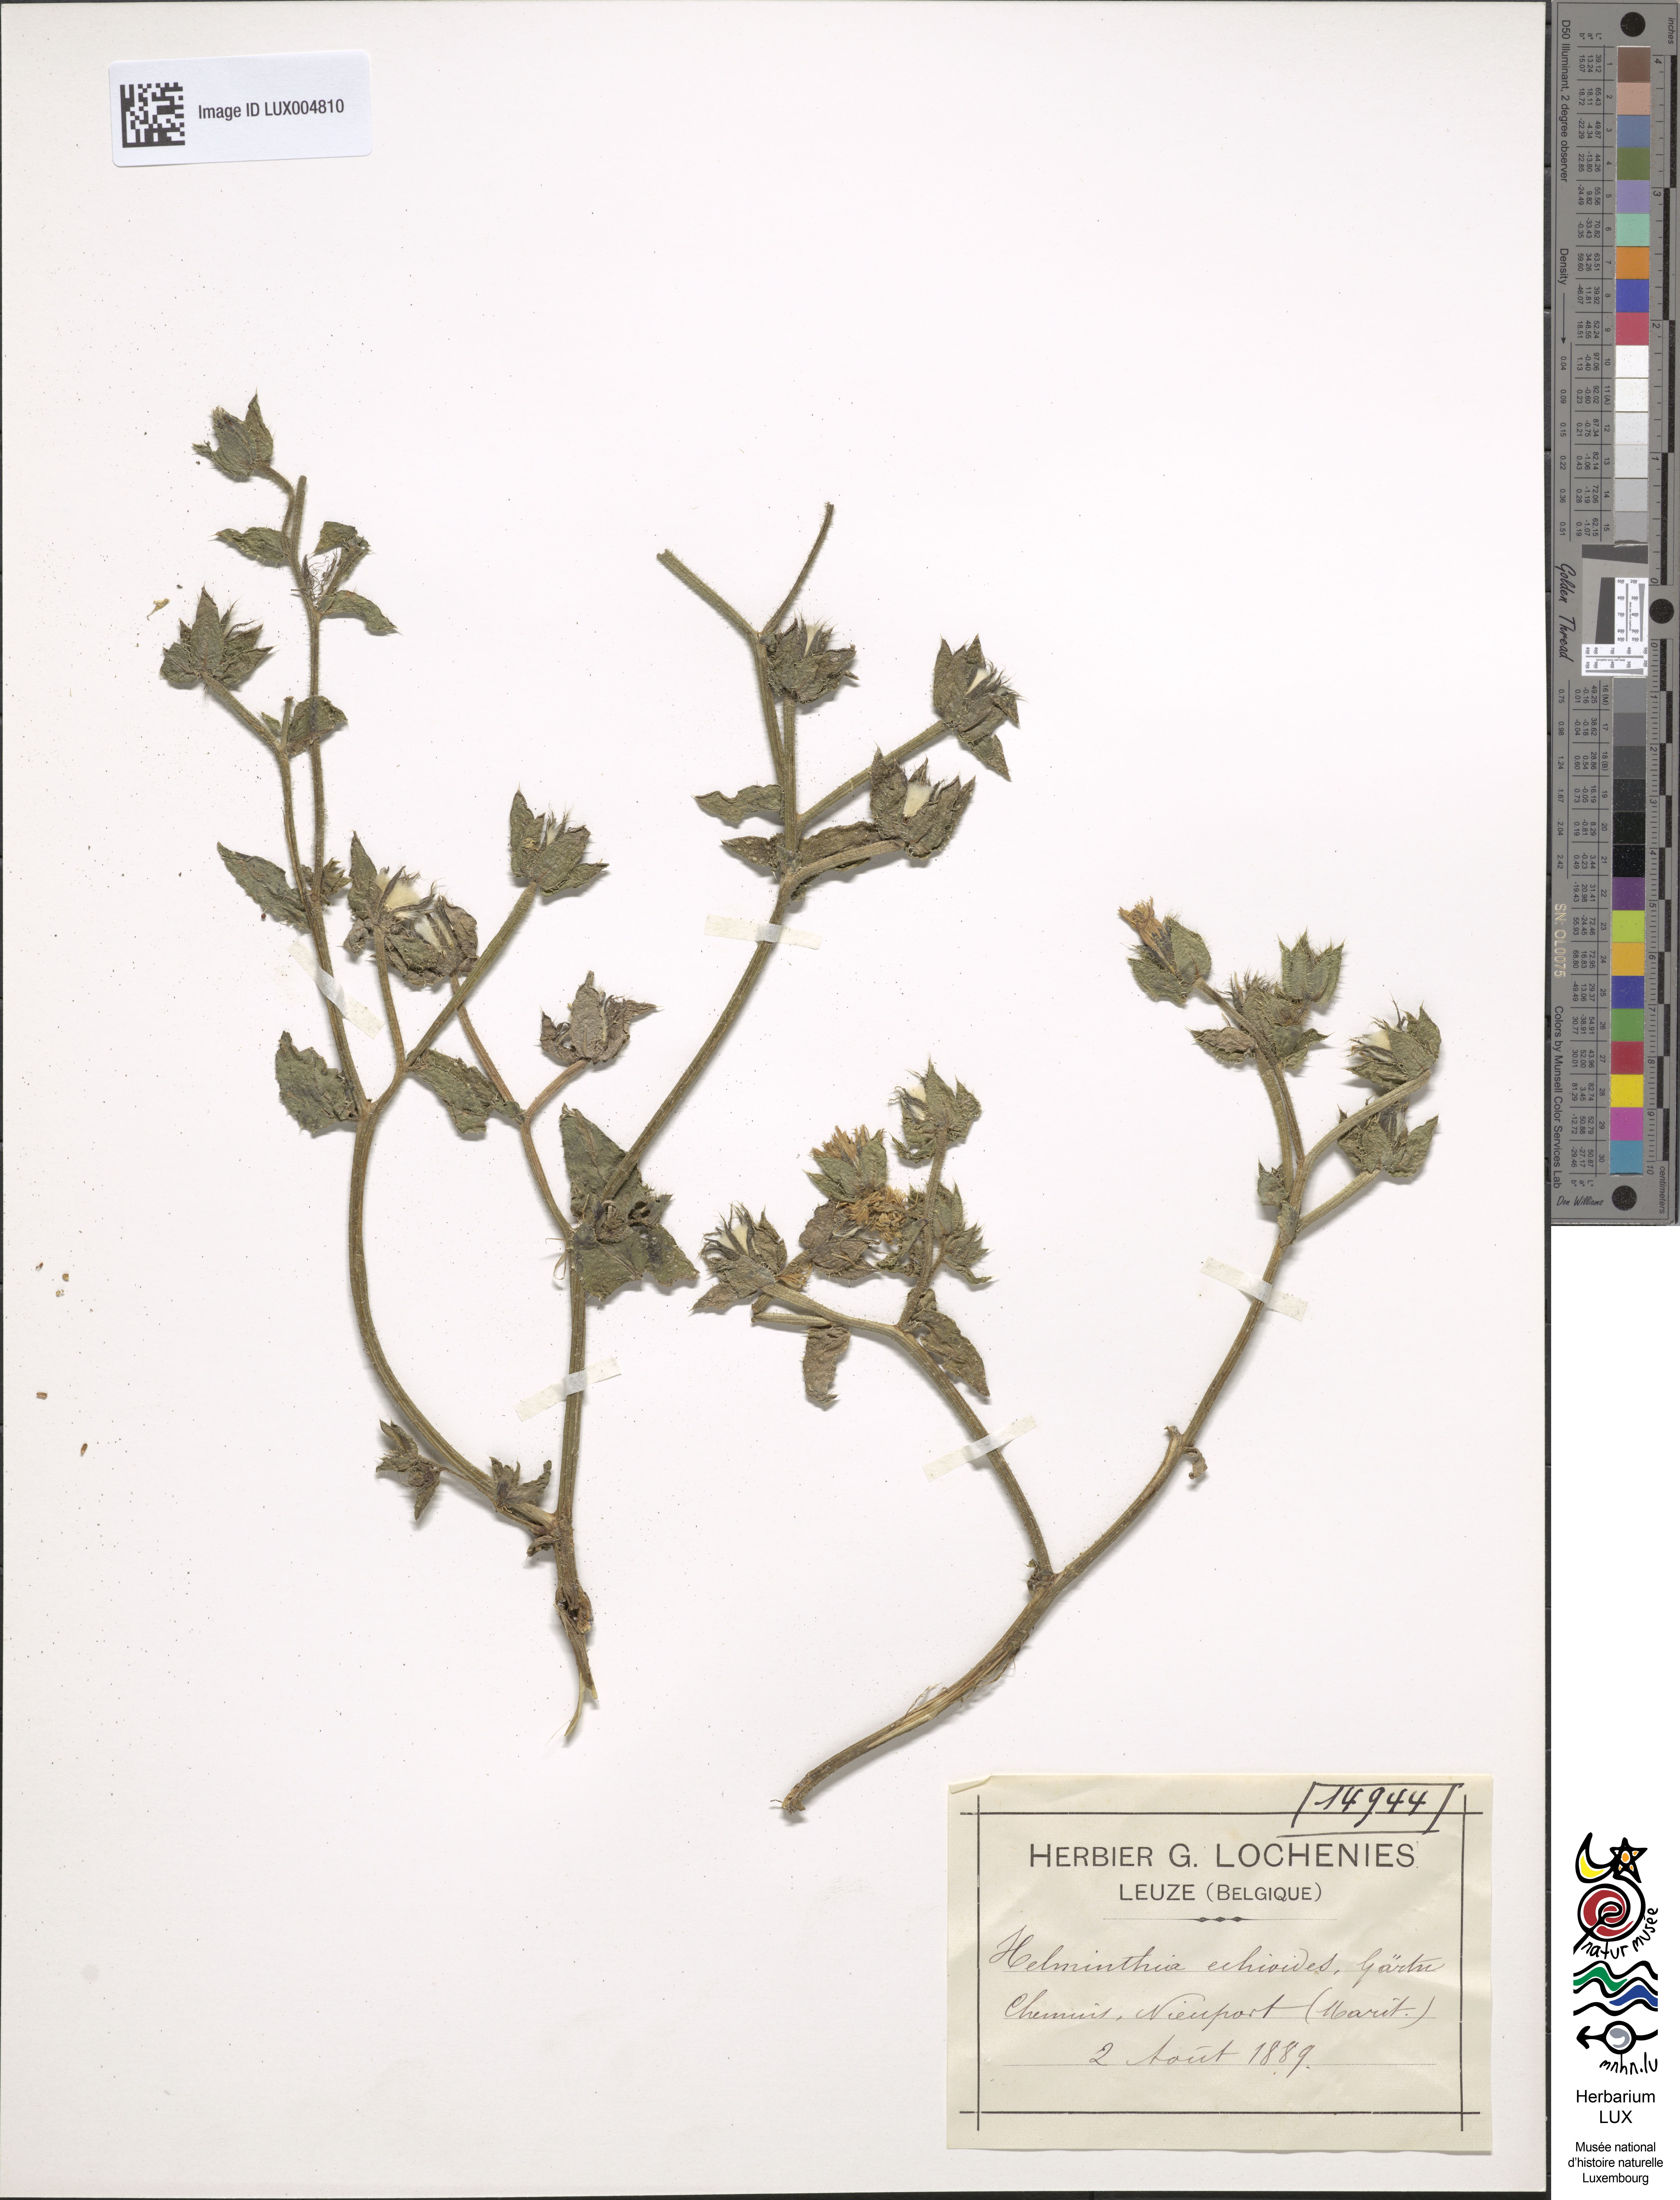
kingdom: Plantae
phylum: Tracheophyta
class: Magnoliopsida
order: Asterales
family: Asteraceae
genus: Helminthotheca
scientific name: Helminthotheca echioides
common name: Ox-tongue
